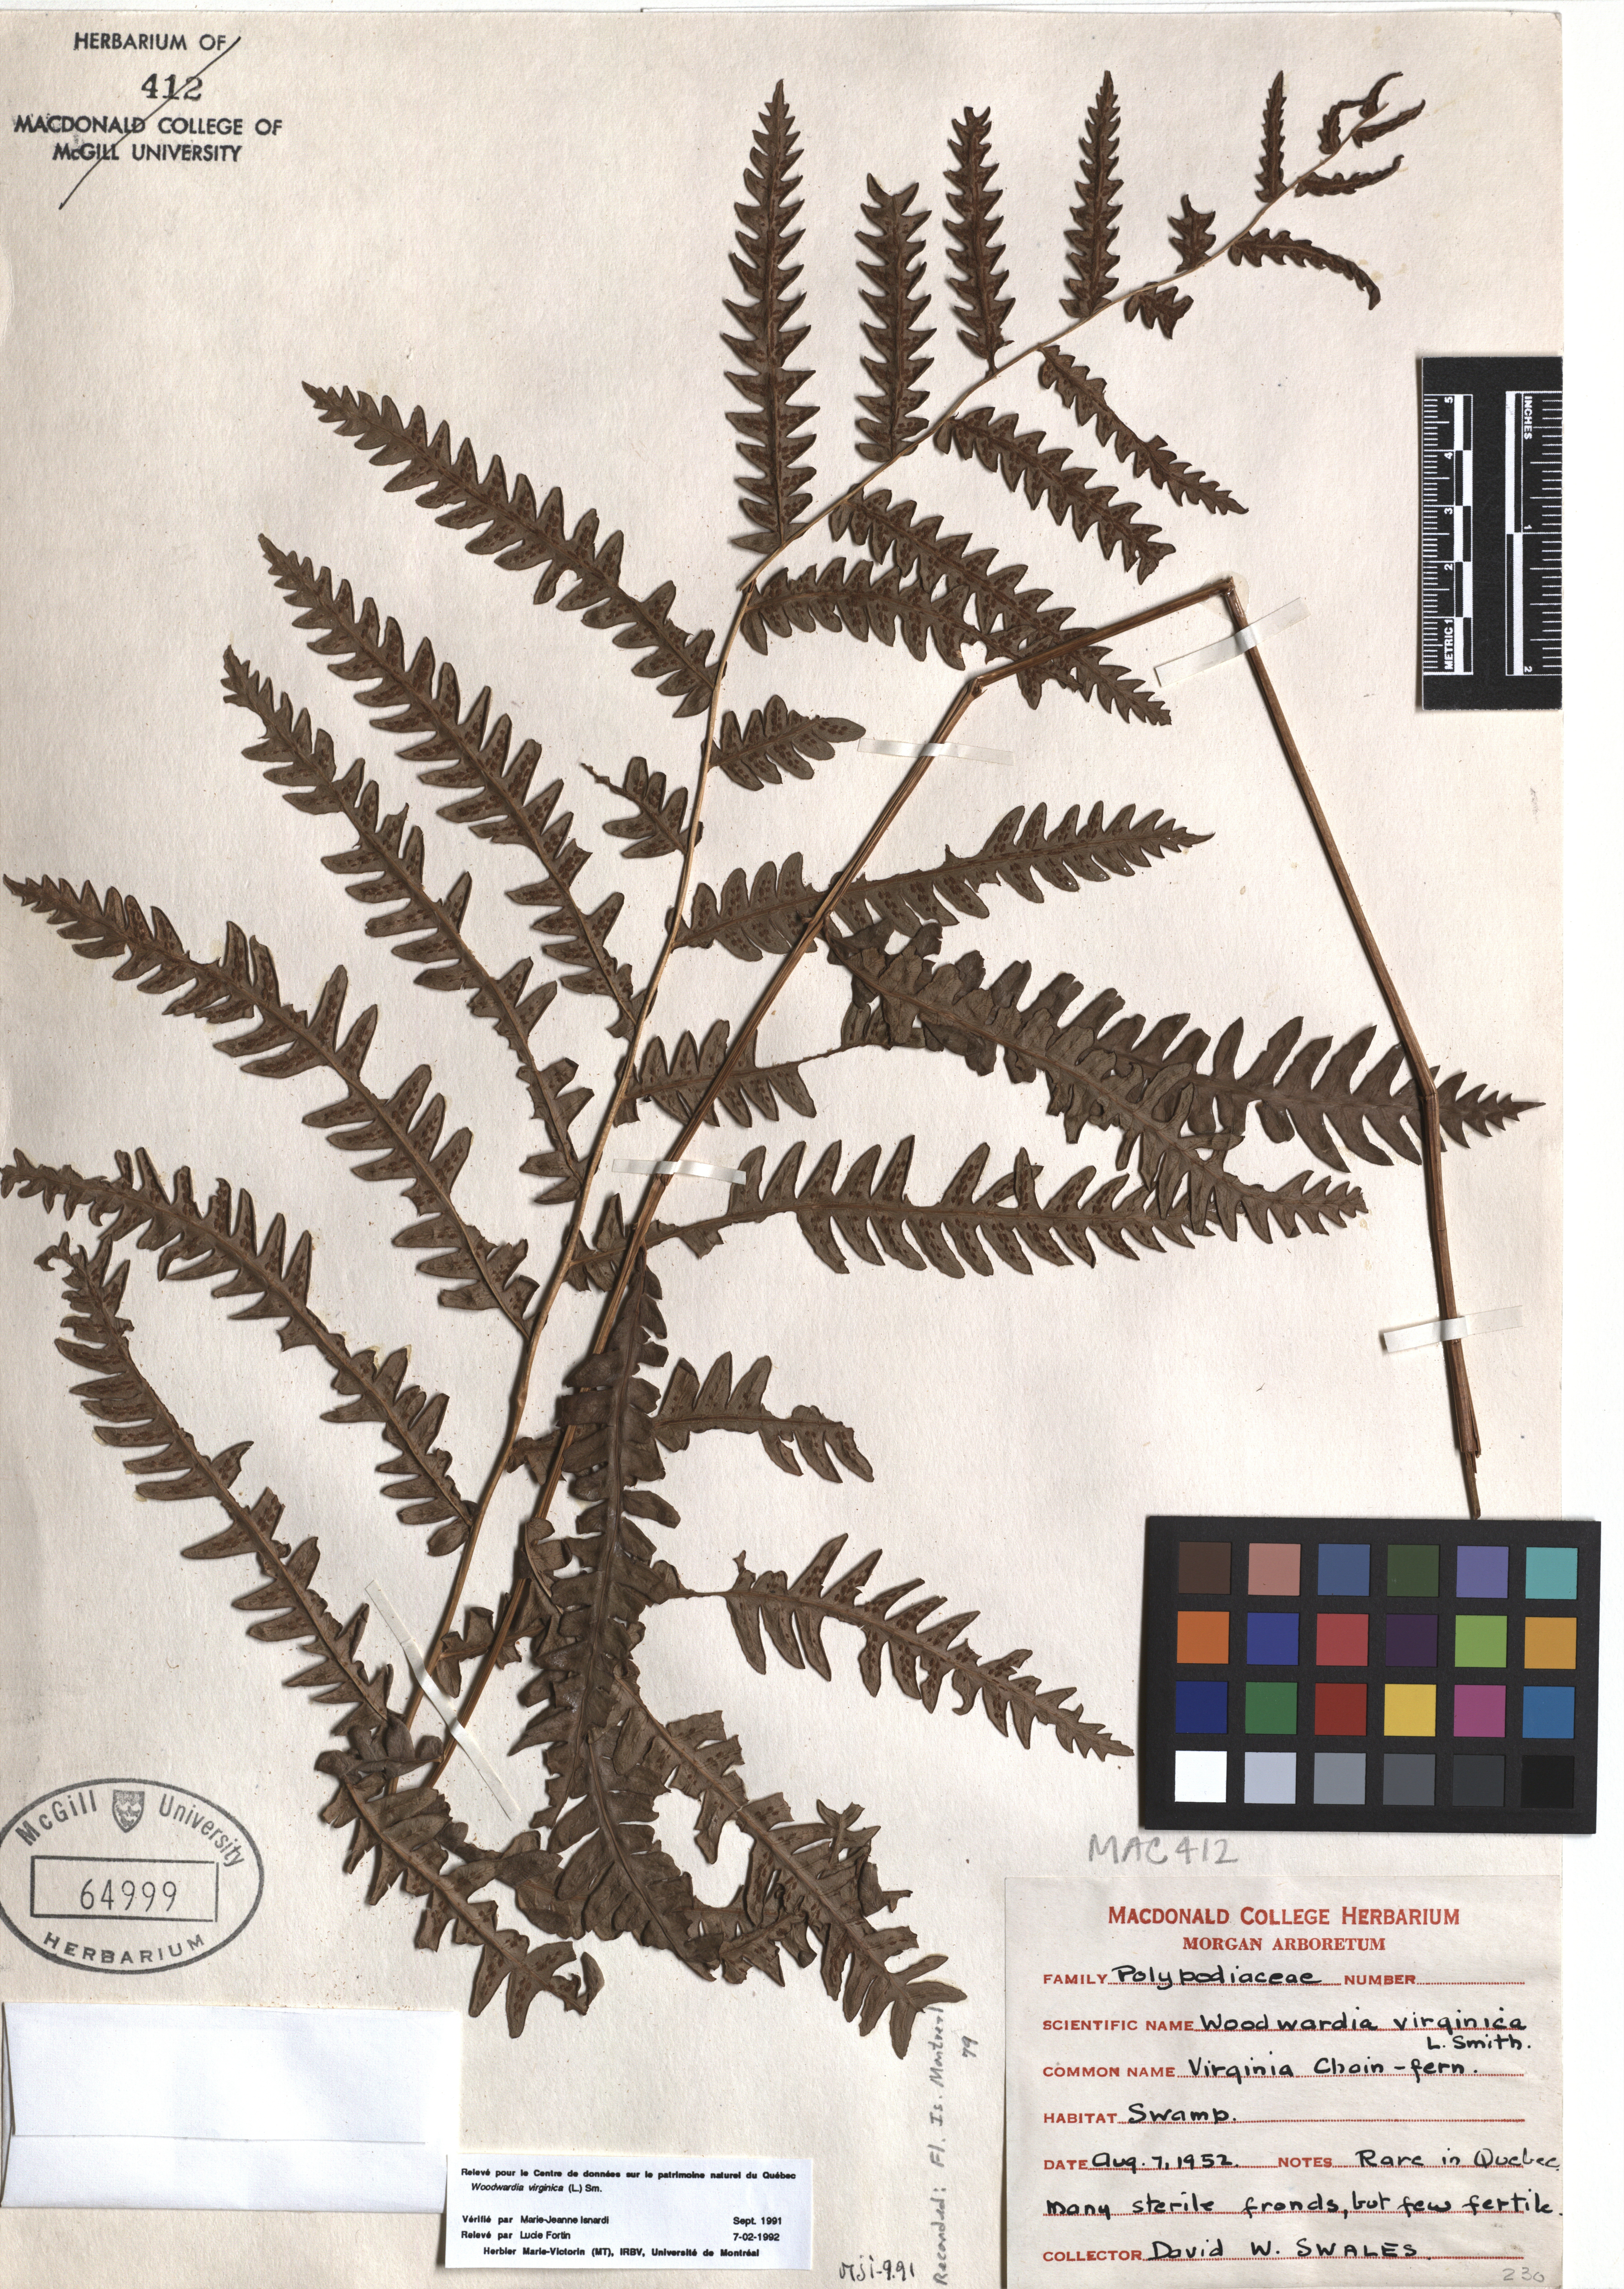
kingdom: Plantae
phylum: Tracheophyta
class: Polypodiopsida
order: Polypodiales
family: Blechnaceae
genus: Anchistea
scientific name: Anchistea virginica
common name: Virginia chain fern
